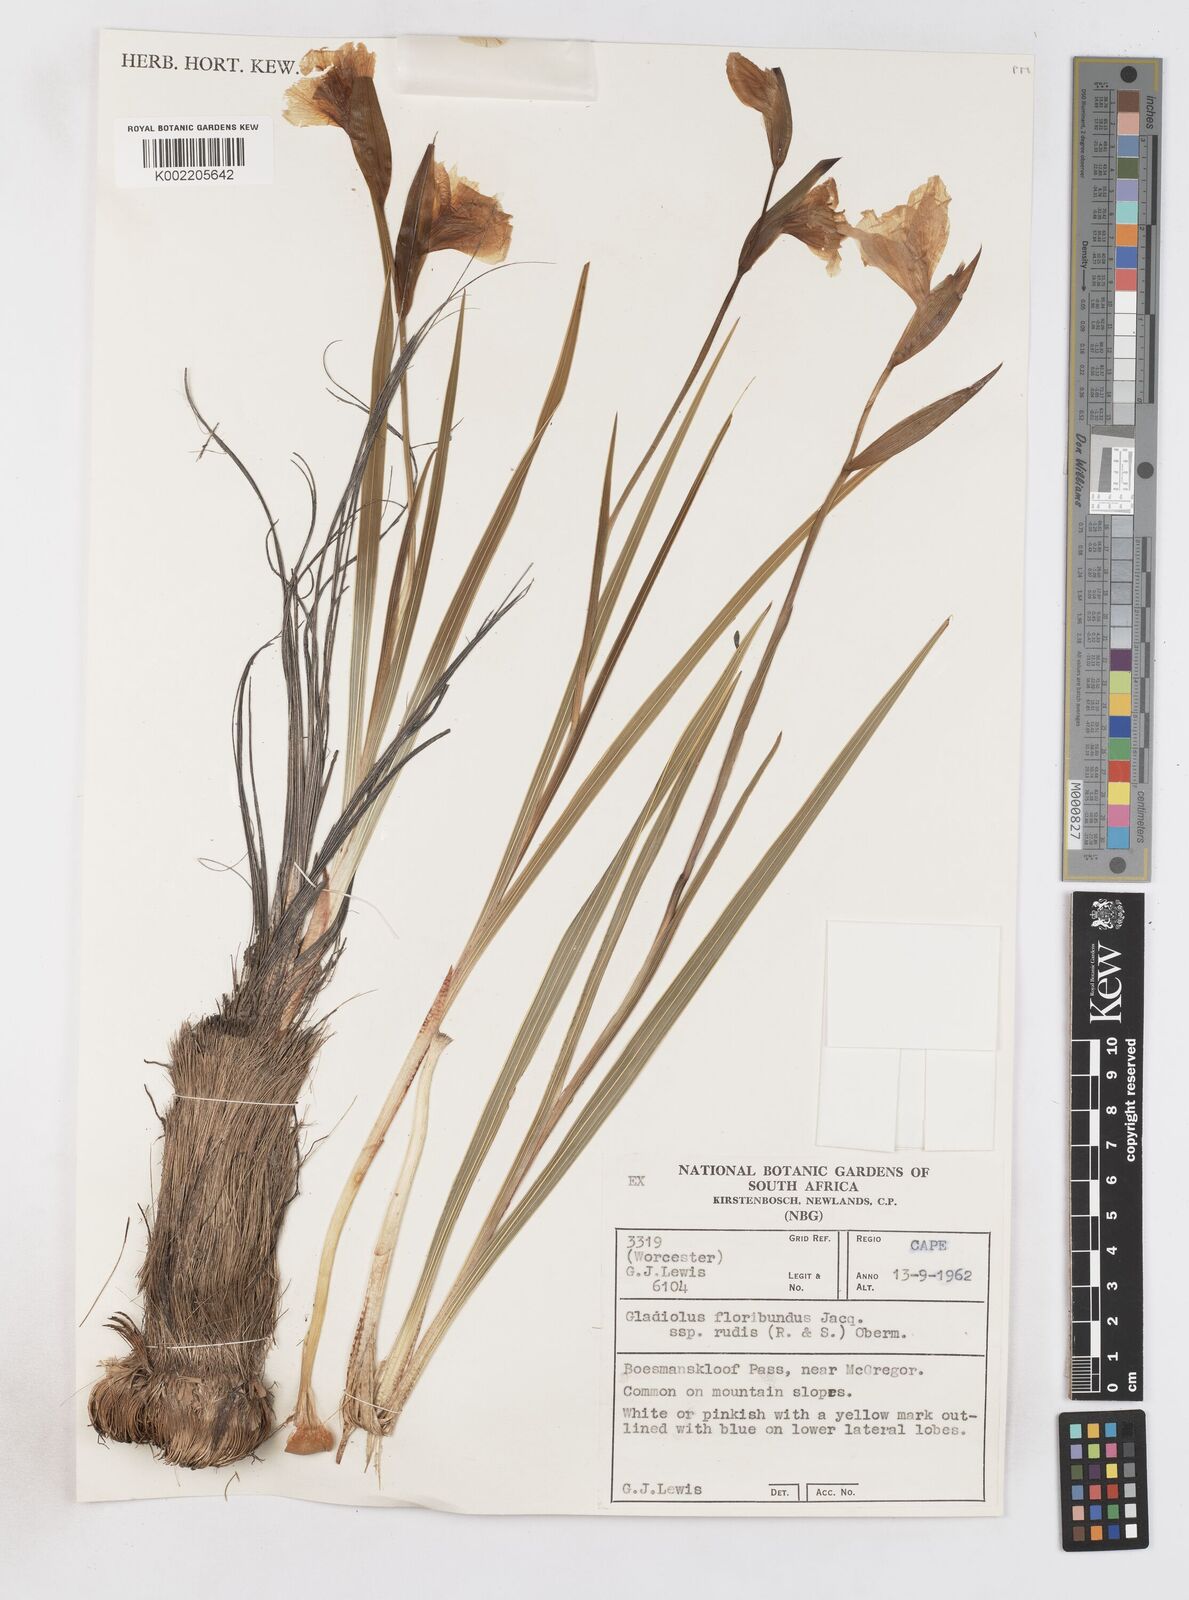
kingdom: Plantae
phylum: Tracheophyta
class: Liliopsida
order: Asparagales
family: Iridaceae
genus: Gladiolus
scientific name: Gladiolus rudis
